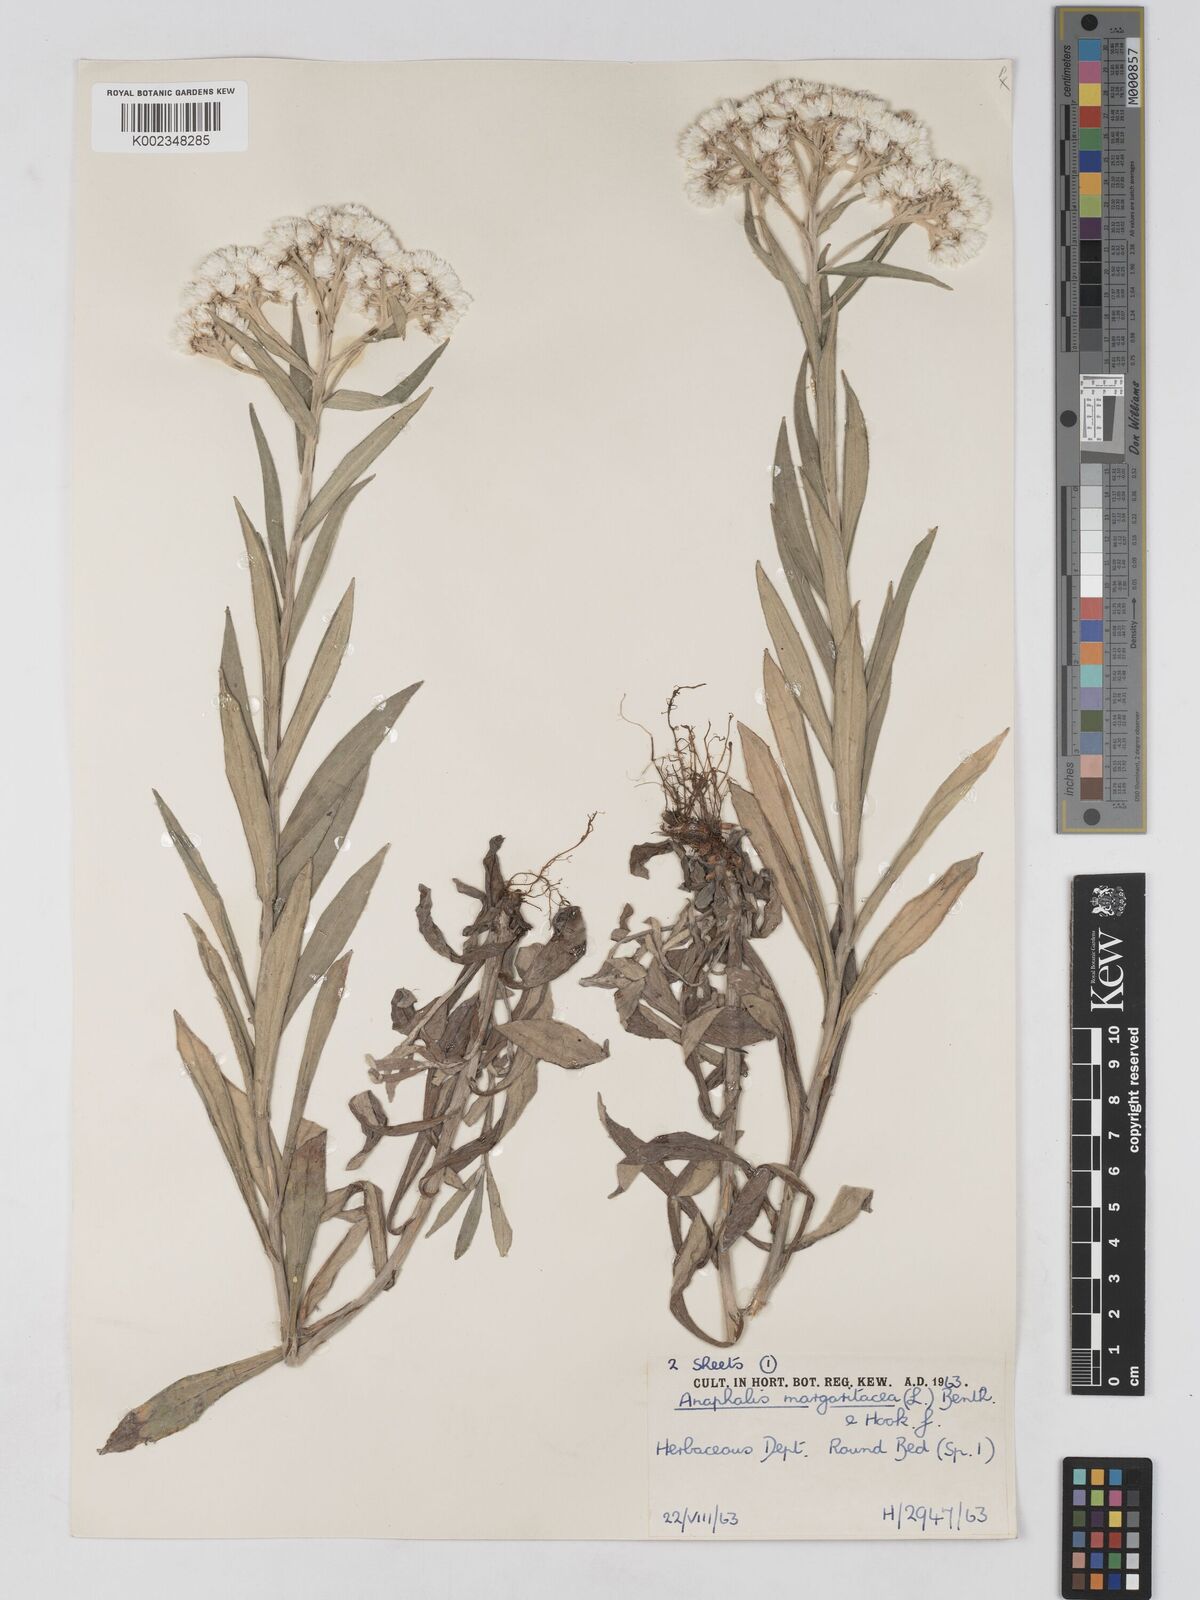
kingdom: Plantae
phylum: Tracheophyta
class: Magnoliopsida
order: Asterales
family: Asteraceae
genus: Anaphalis
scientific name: Anaphalis margaritacea
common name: Pearly everlasting
